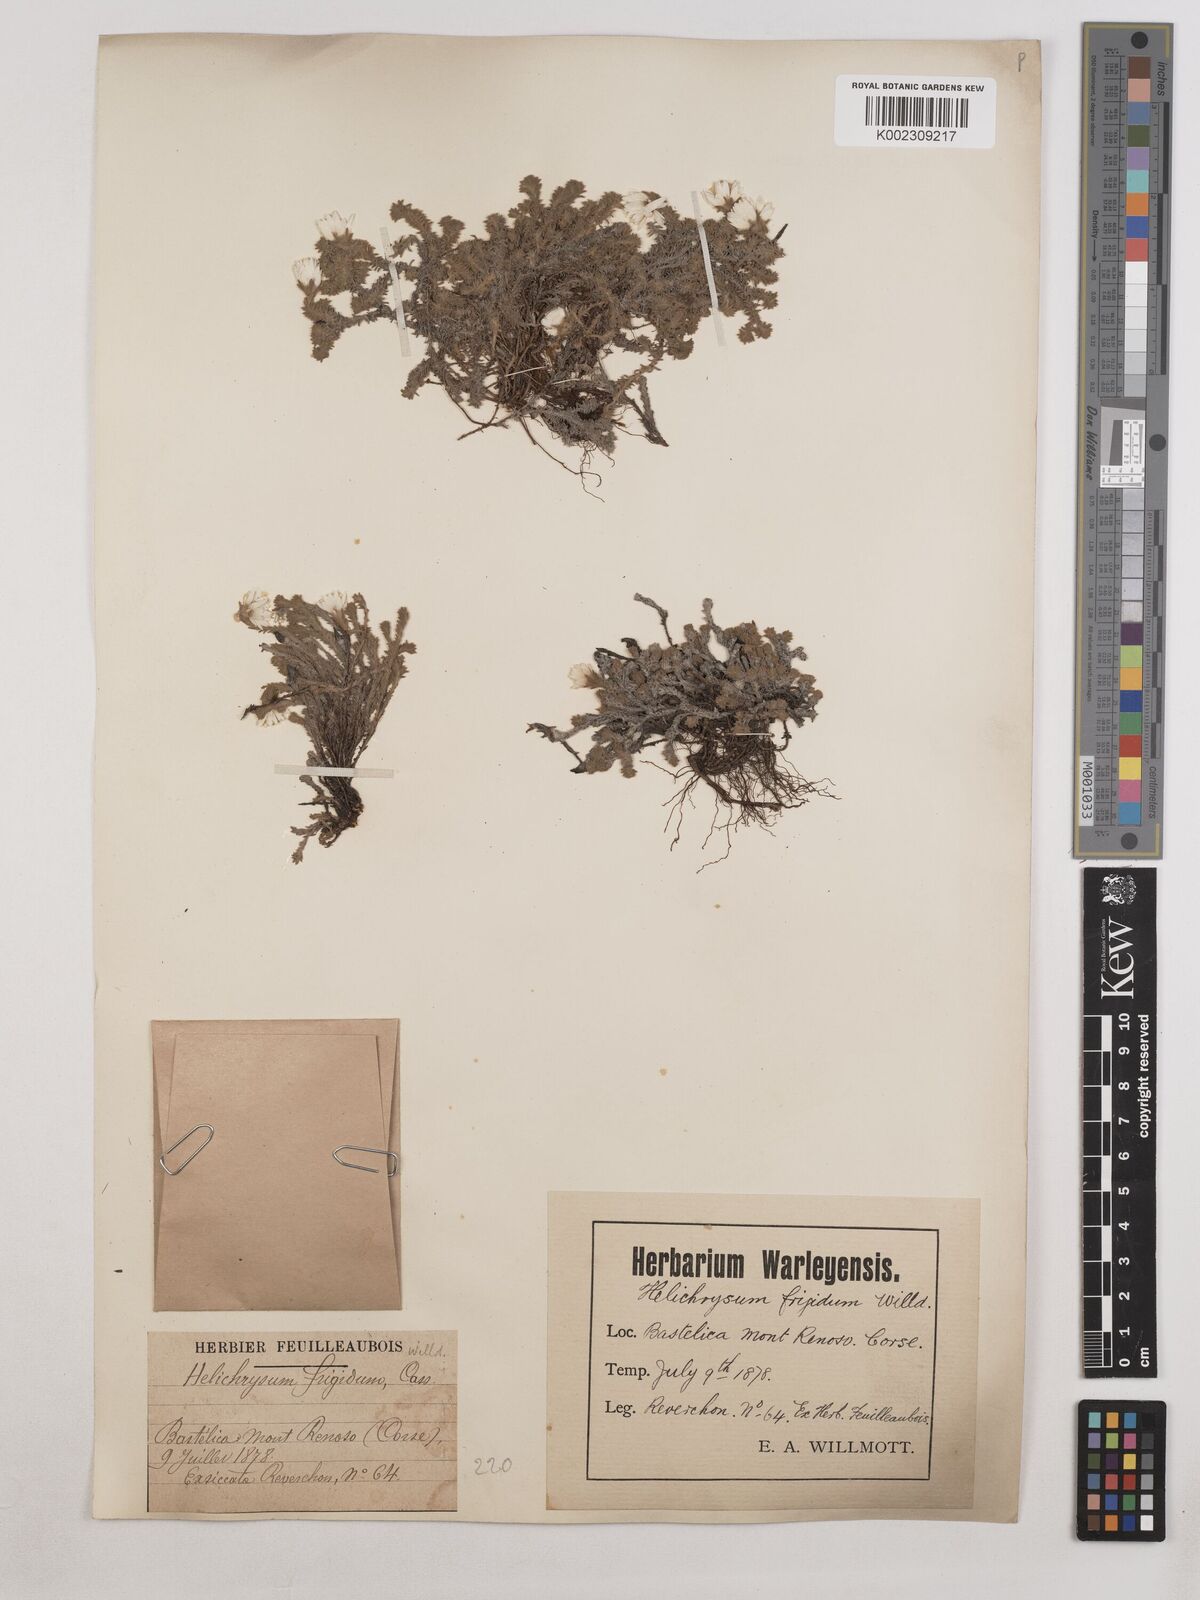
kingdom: Plantae
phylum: Tracheophyta
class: Magnoliopsida
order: Asterales
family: Asteraceae
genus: Castroviejoa
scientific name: Castroviejoa frigida
